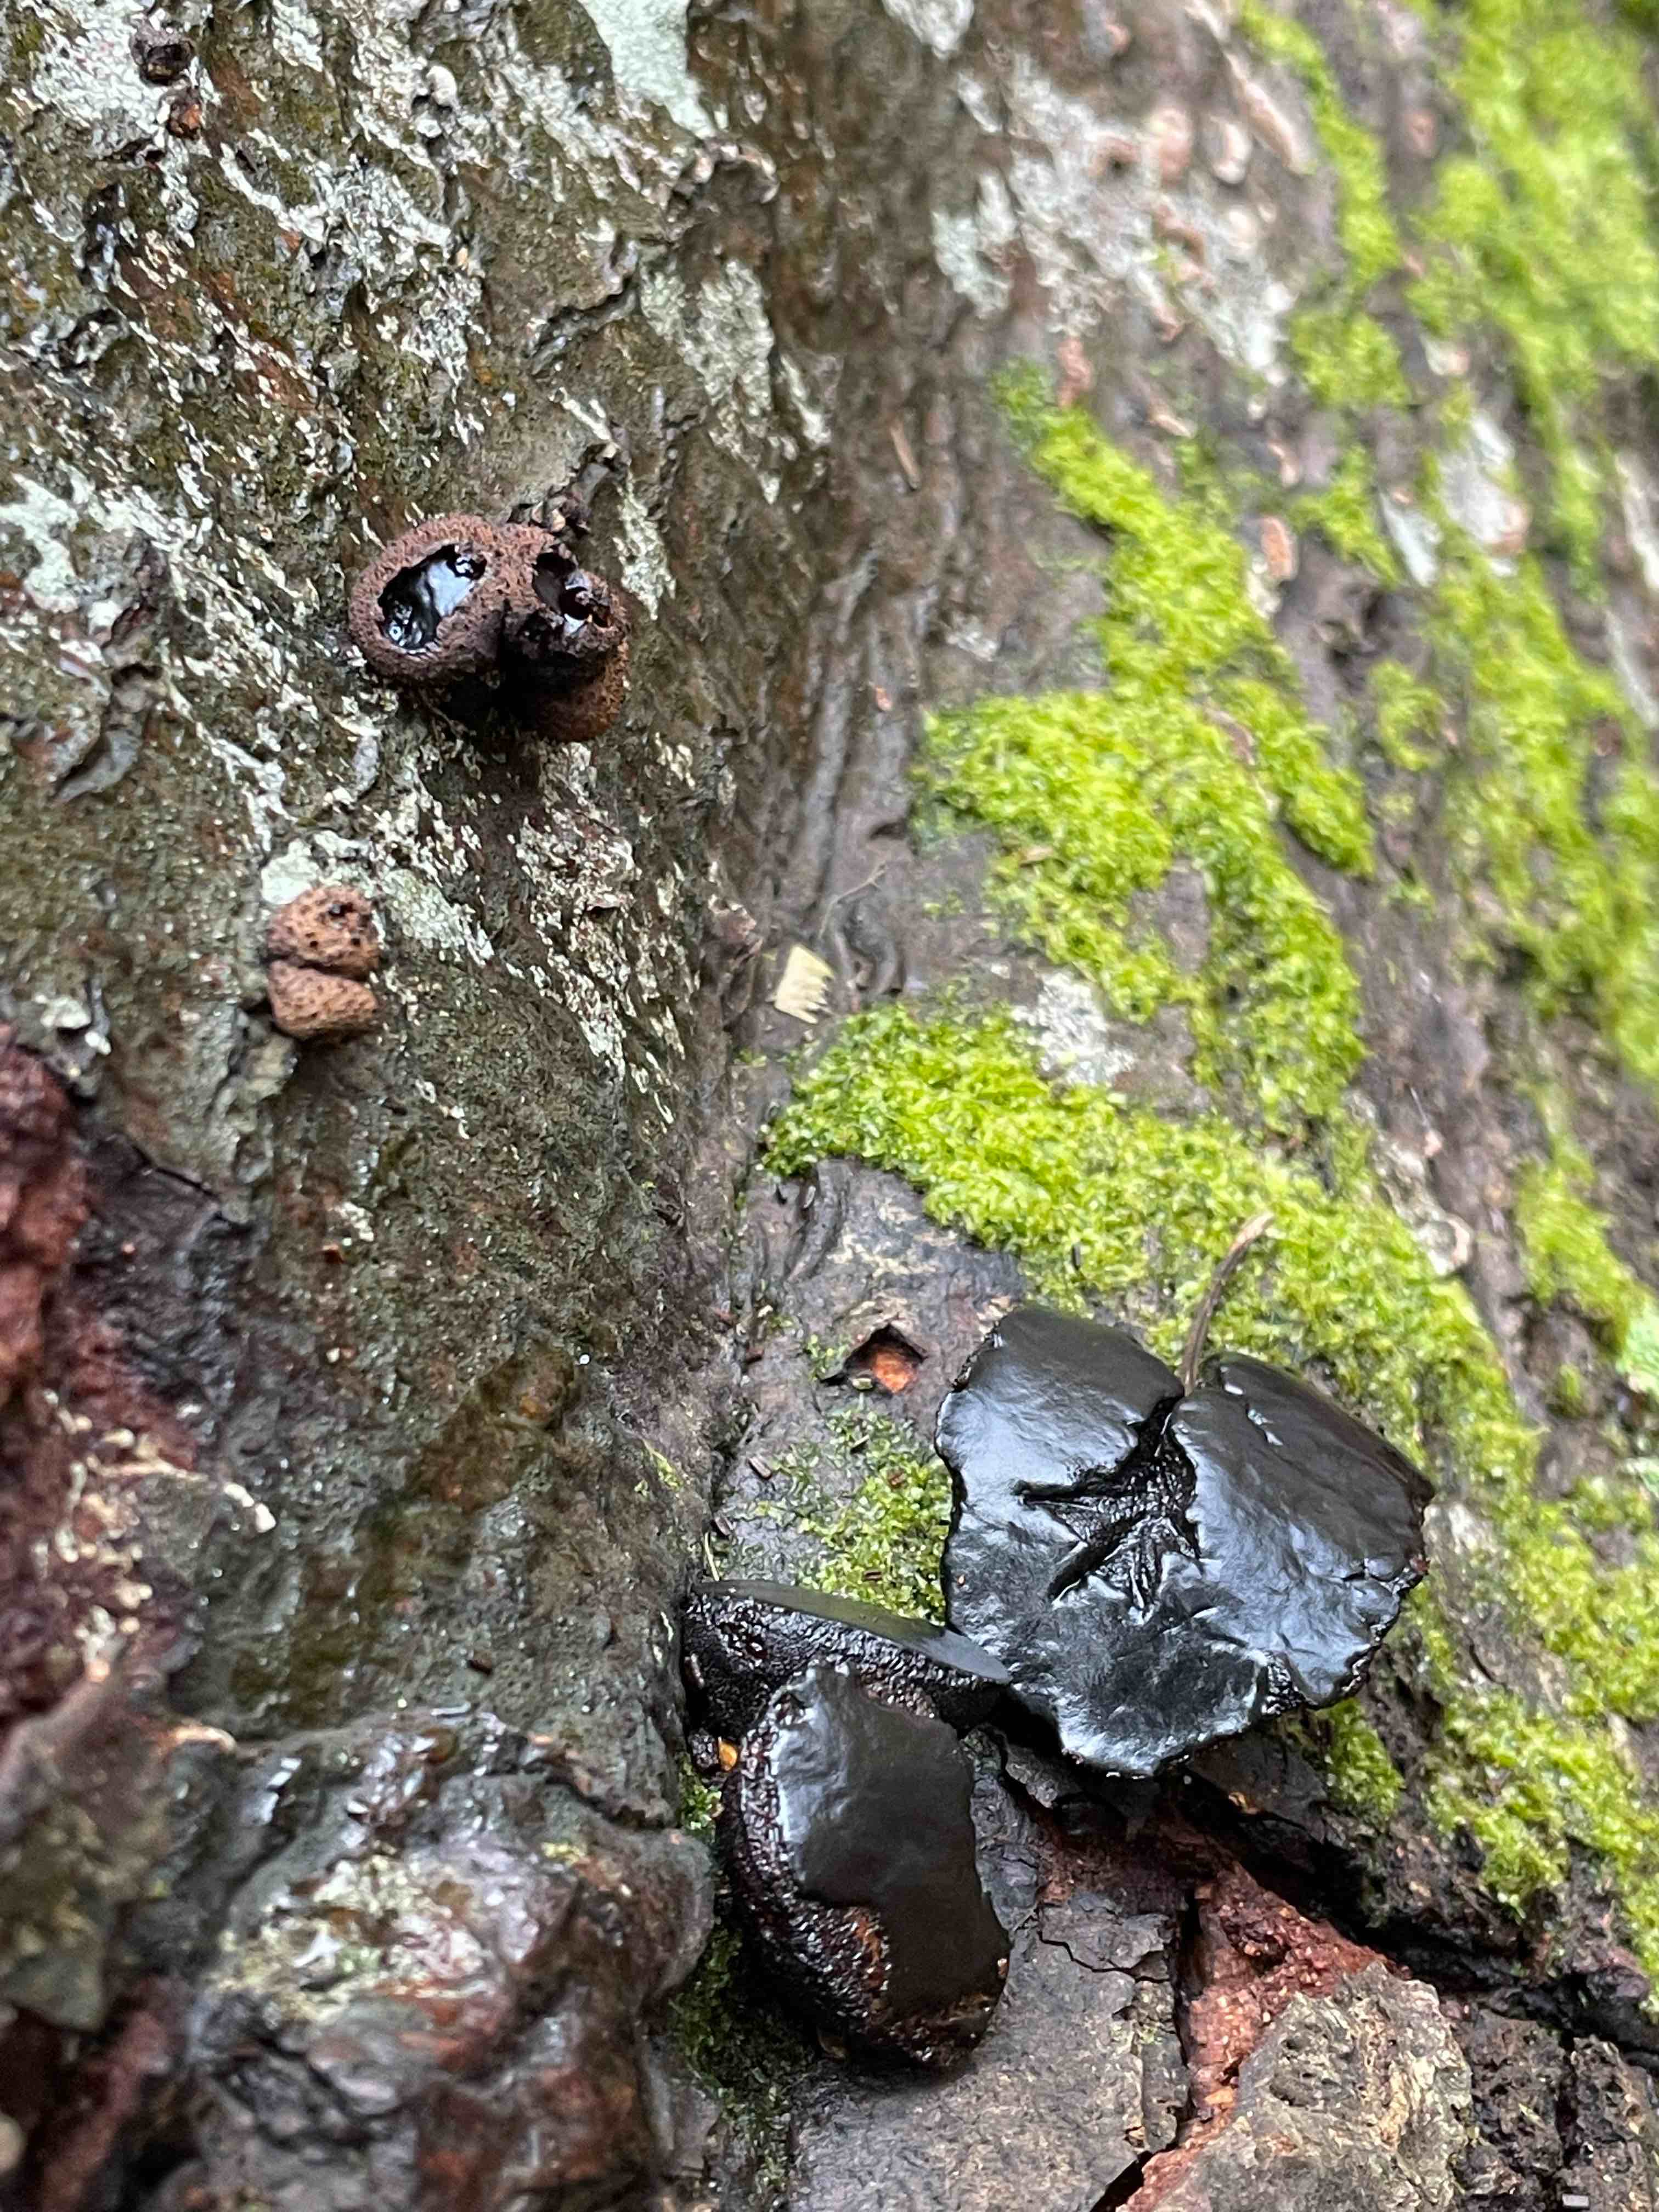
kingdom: Fungi
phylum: Ascomycota
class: Leotiomycetes
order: Phacidiales
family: Phacidiaceae
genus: Bulgaria
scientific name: Bulgaria inquinans
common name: afsmittende topsvamp
